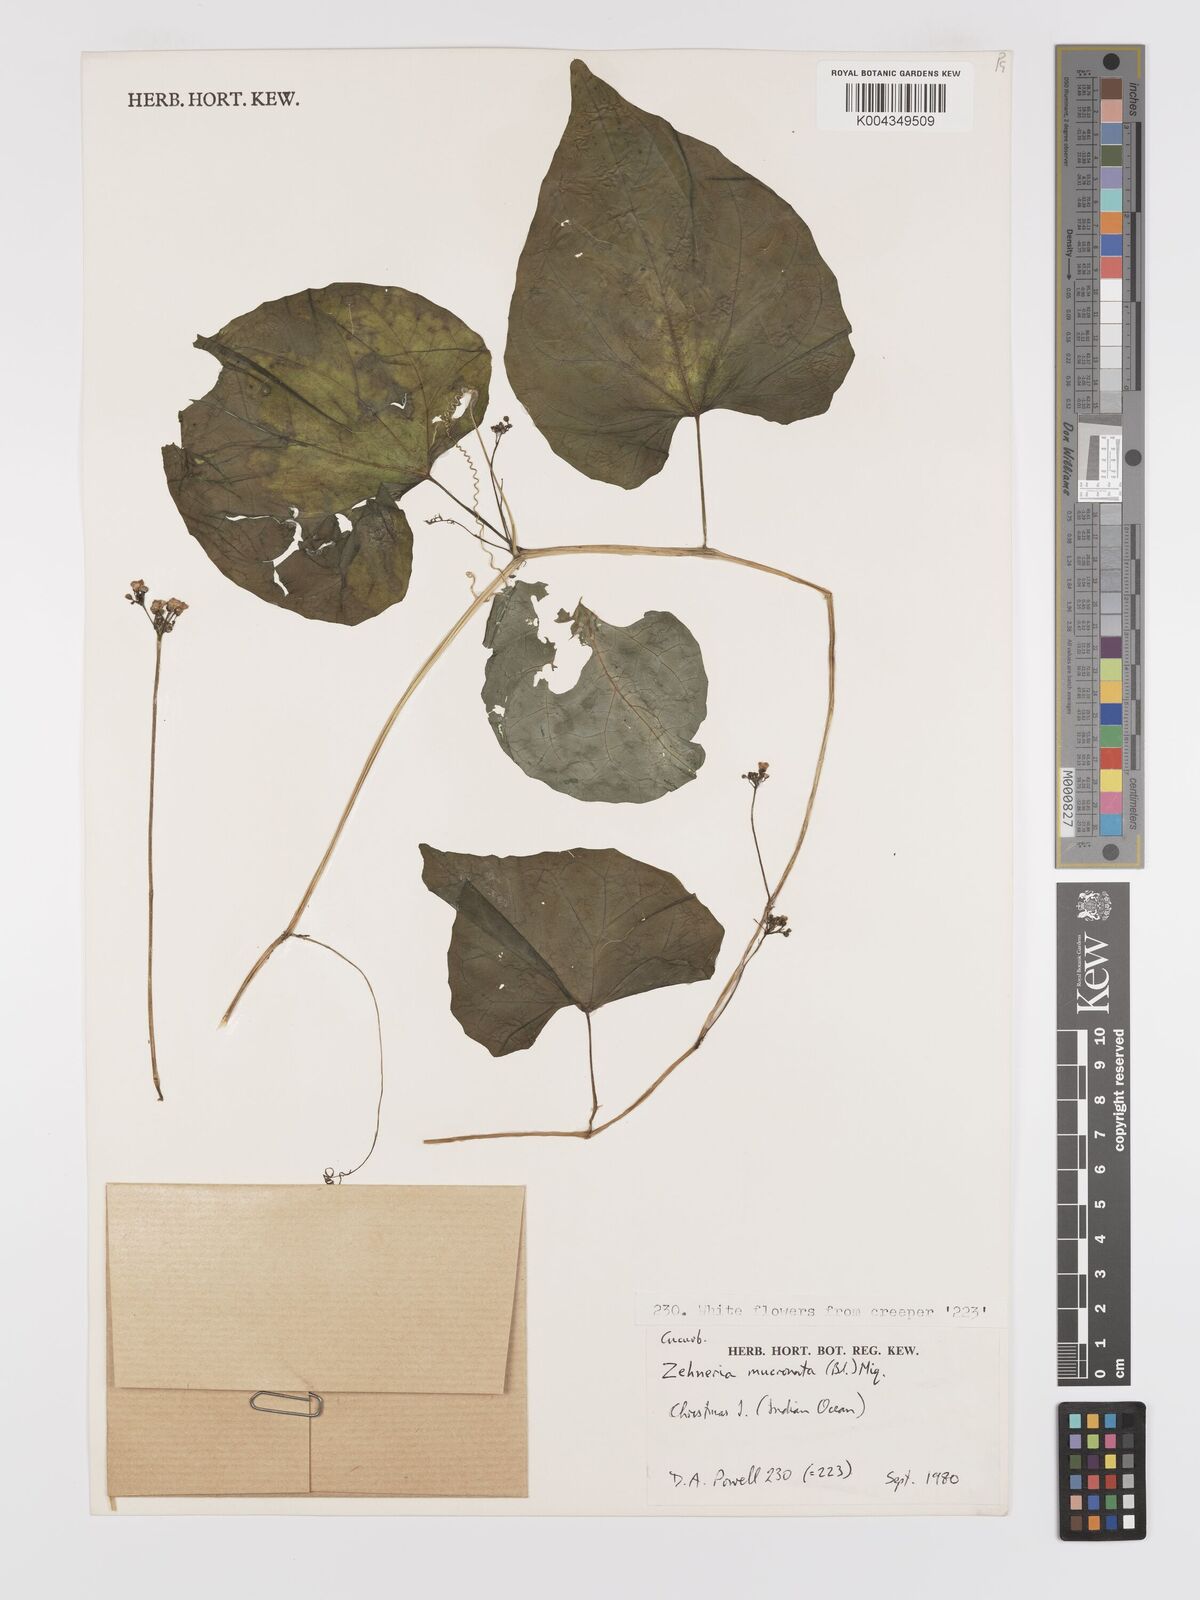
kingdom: Plantae
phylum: Tracheophyta
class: Magnoliopsida
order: Cucurbitales
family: Cucurbitaceae
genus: Zehneria
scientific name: Zehneria mucronata
